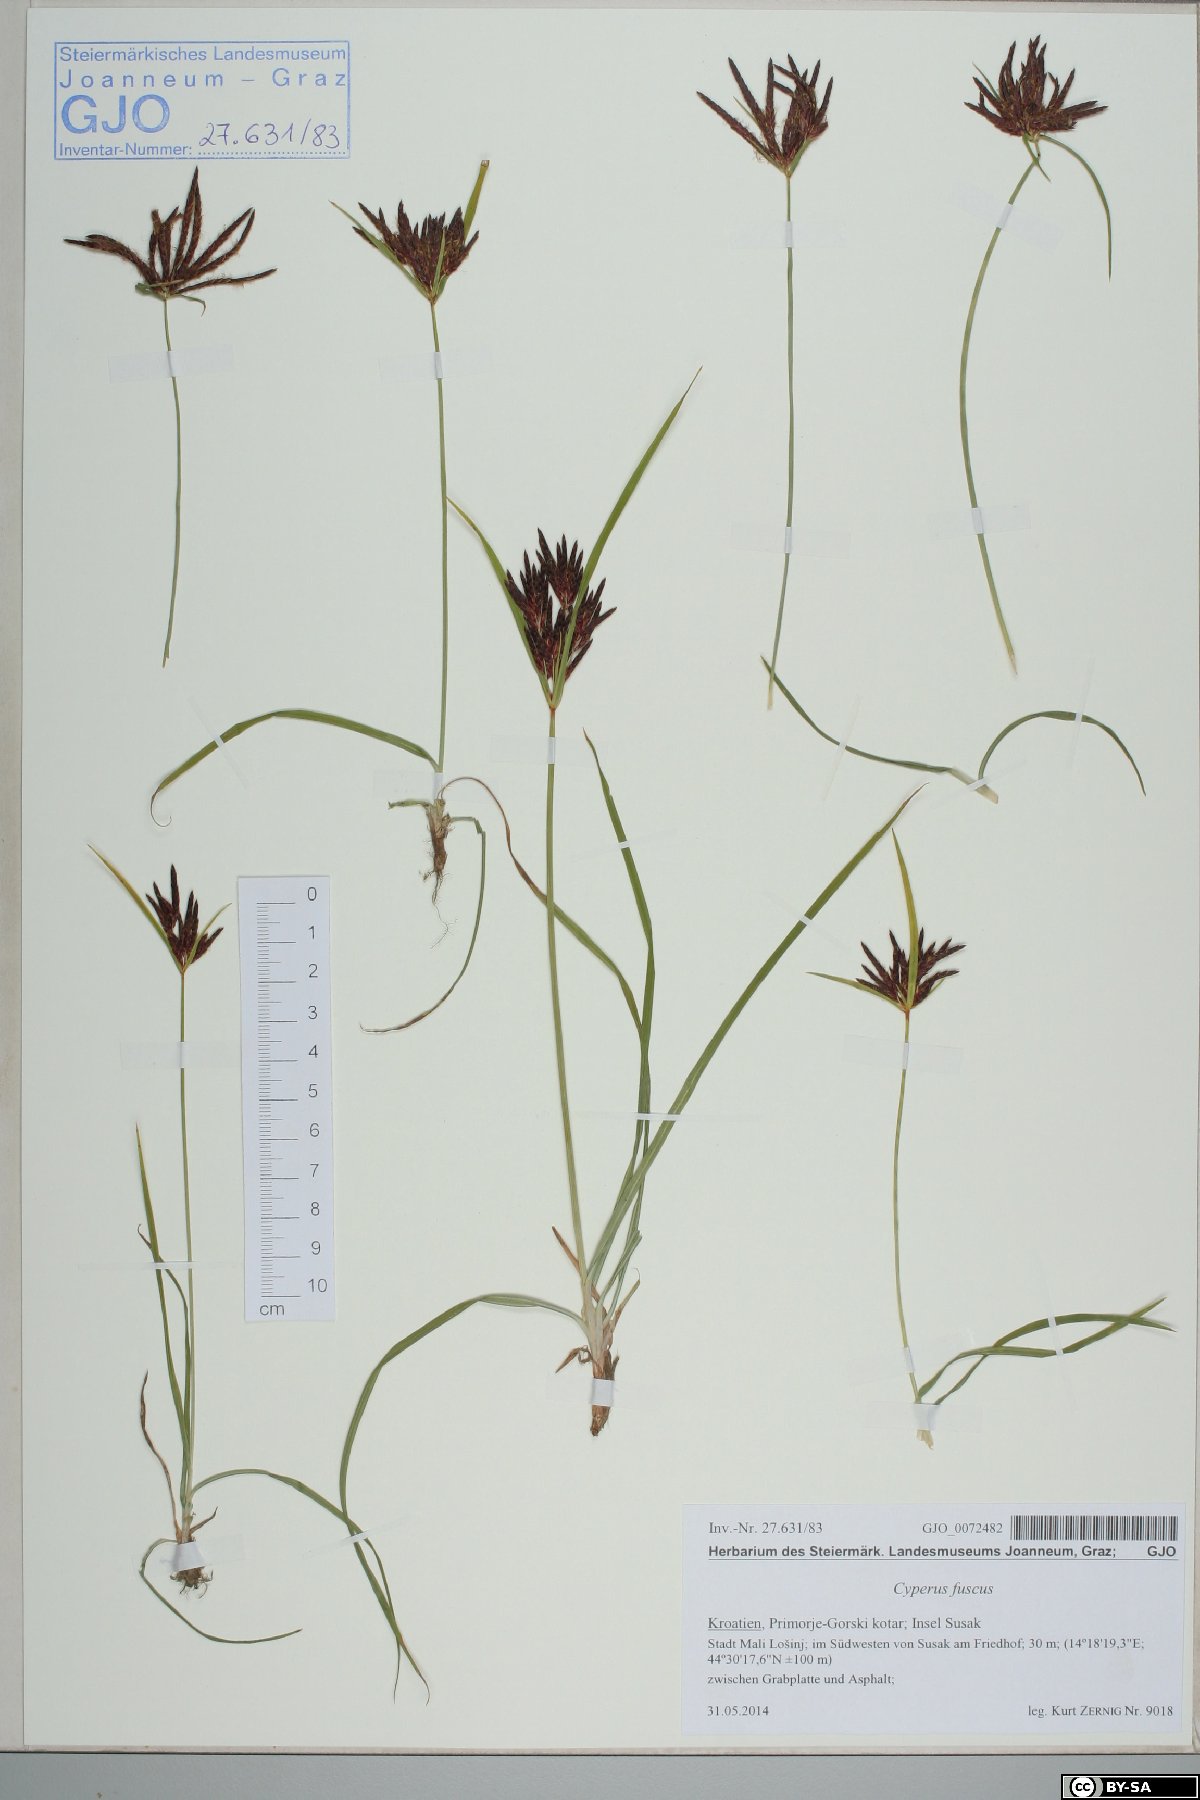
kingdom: Plantae
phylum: Tracheophyta
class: Liliopsida
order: Poales
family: Cyperaceae
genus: Cyperus
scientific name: Cyperus rotundus
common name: Nutgrass
